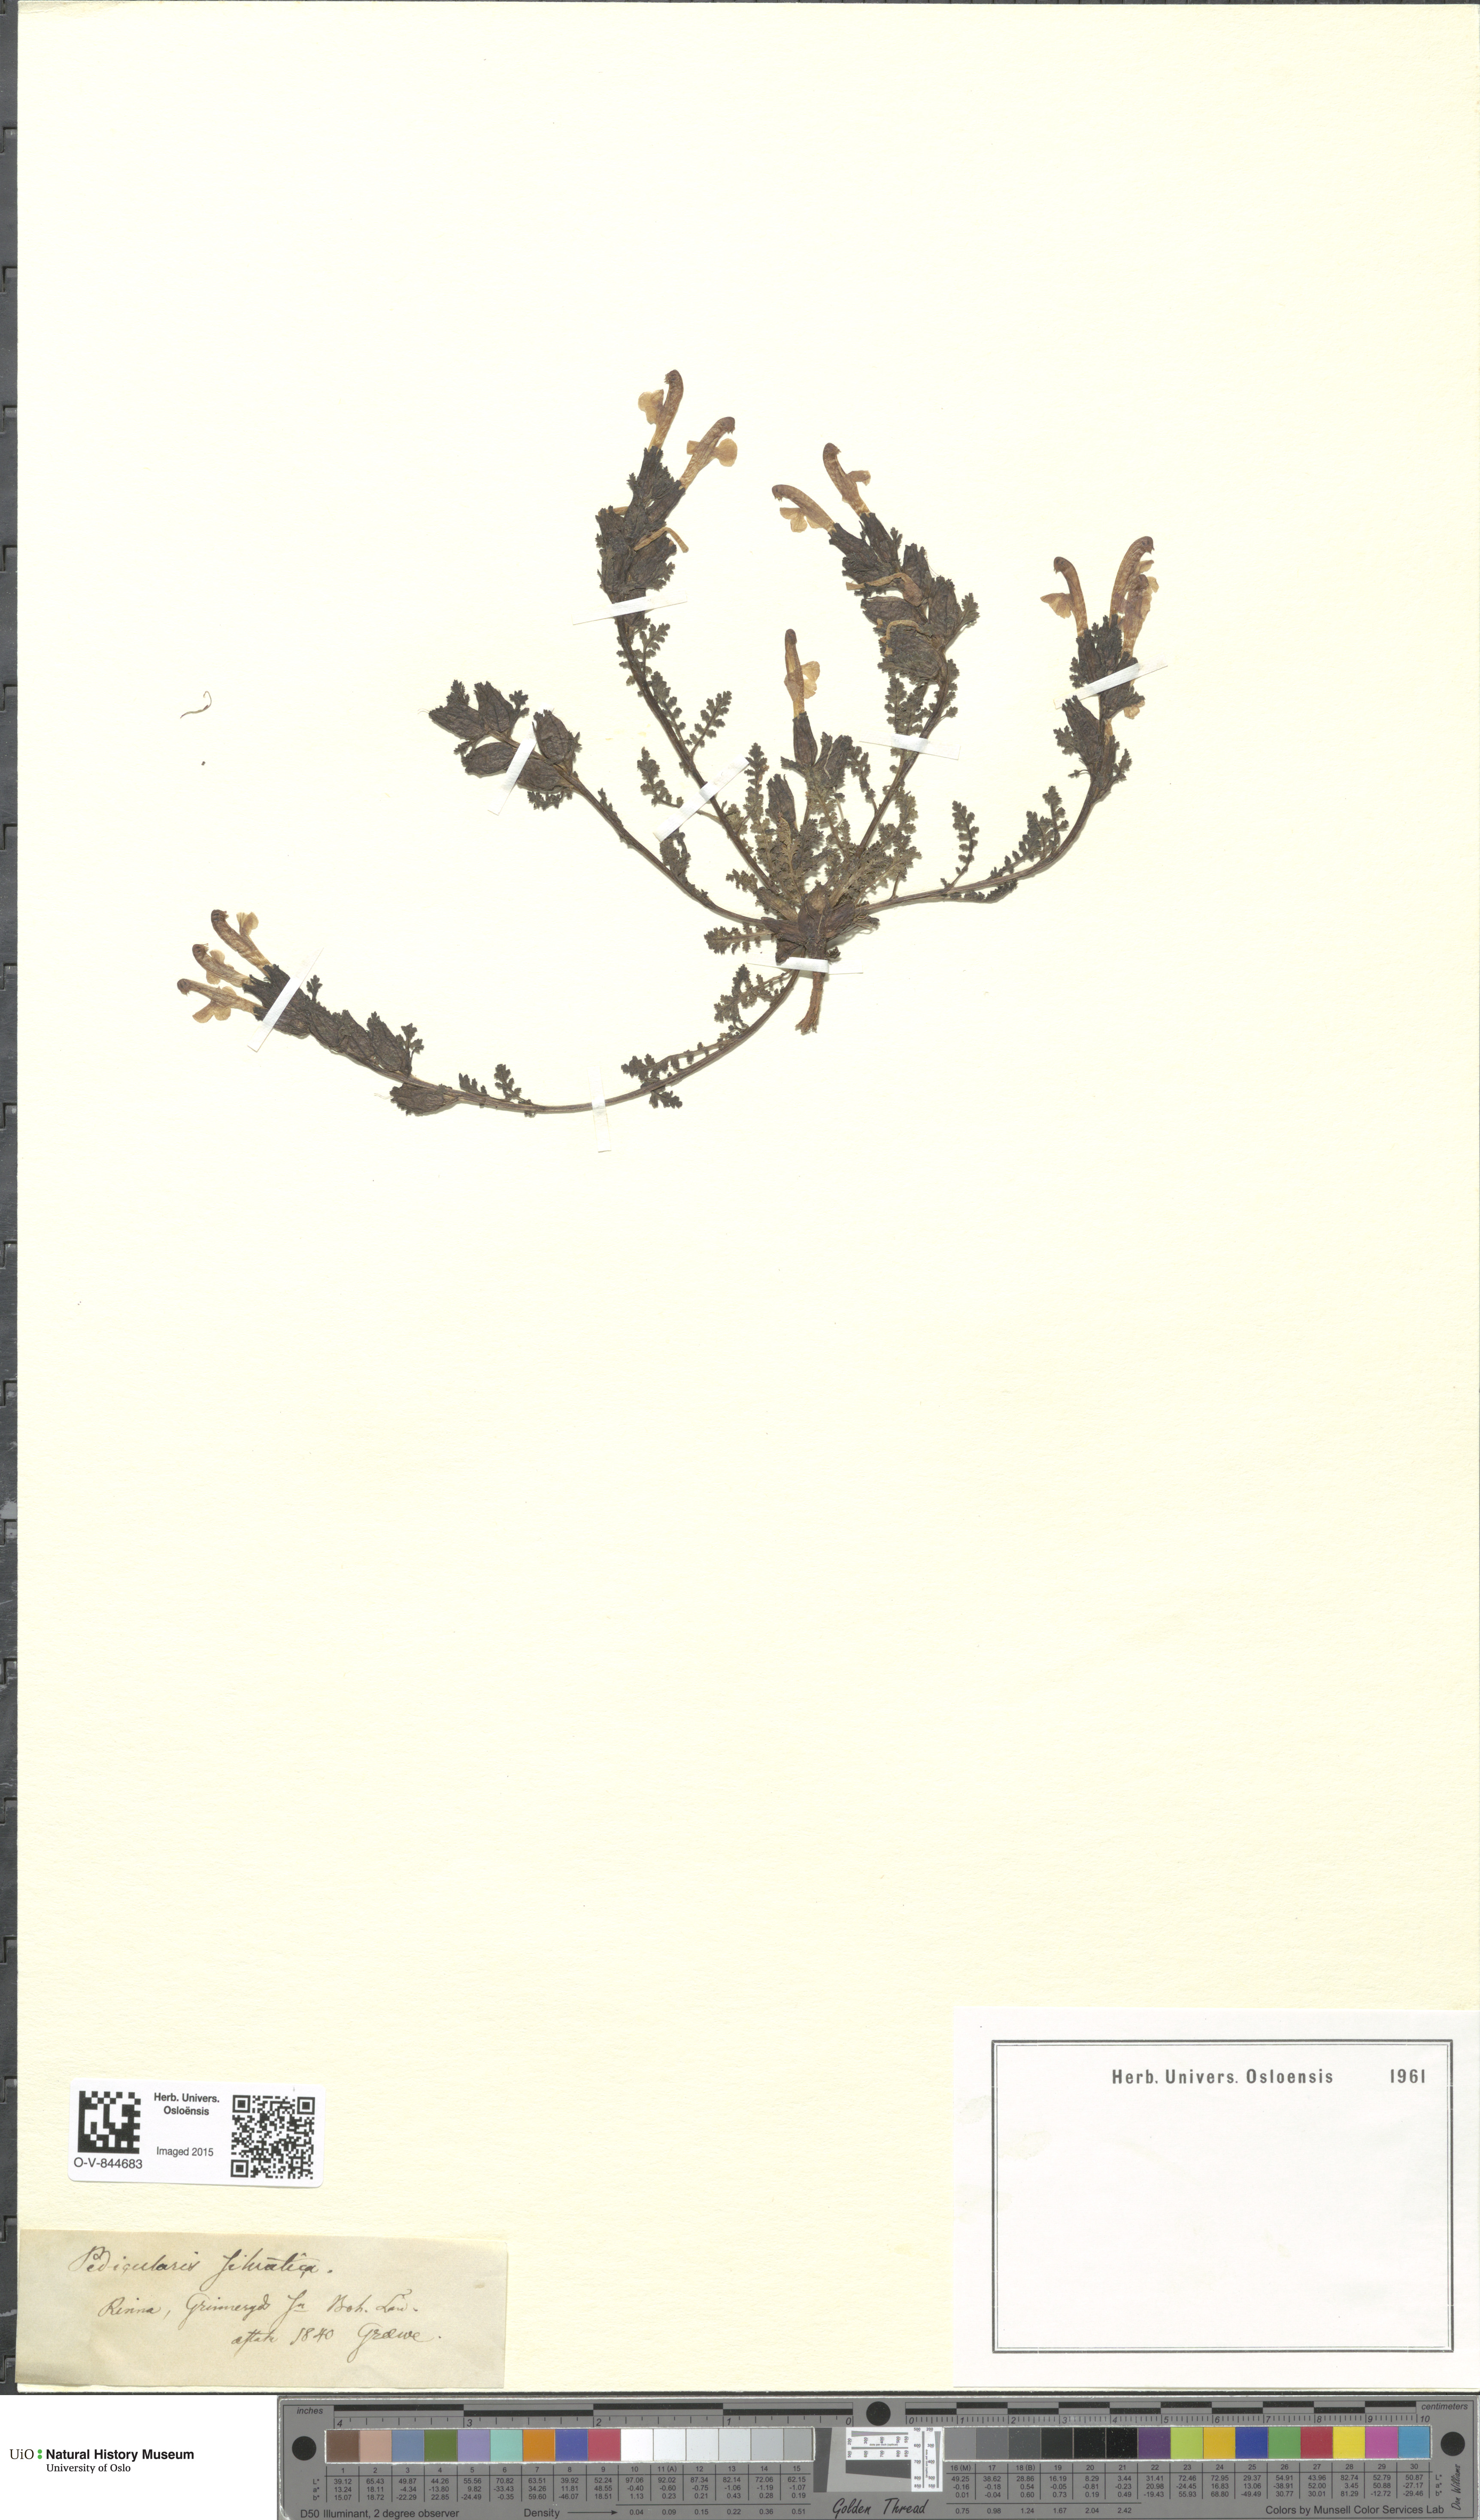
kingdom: Plantae
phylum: Tracheophyta
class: Magnoliopsida
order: Lamiales
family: Orobanchaceae
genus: Pedicularis
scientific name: Pedicularis sylvatica
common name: Lousewort
